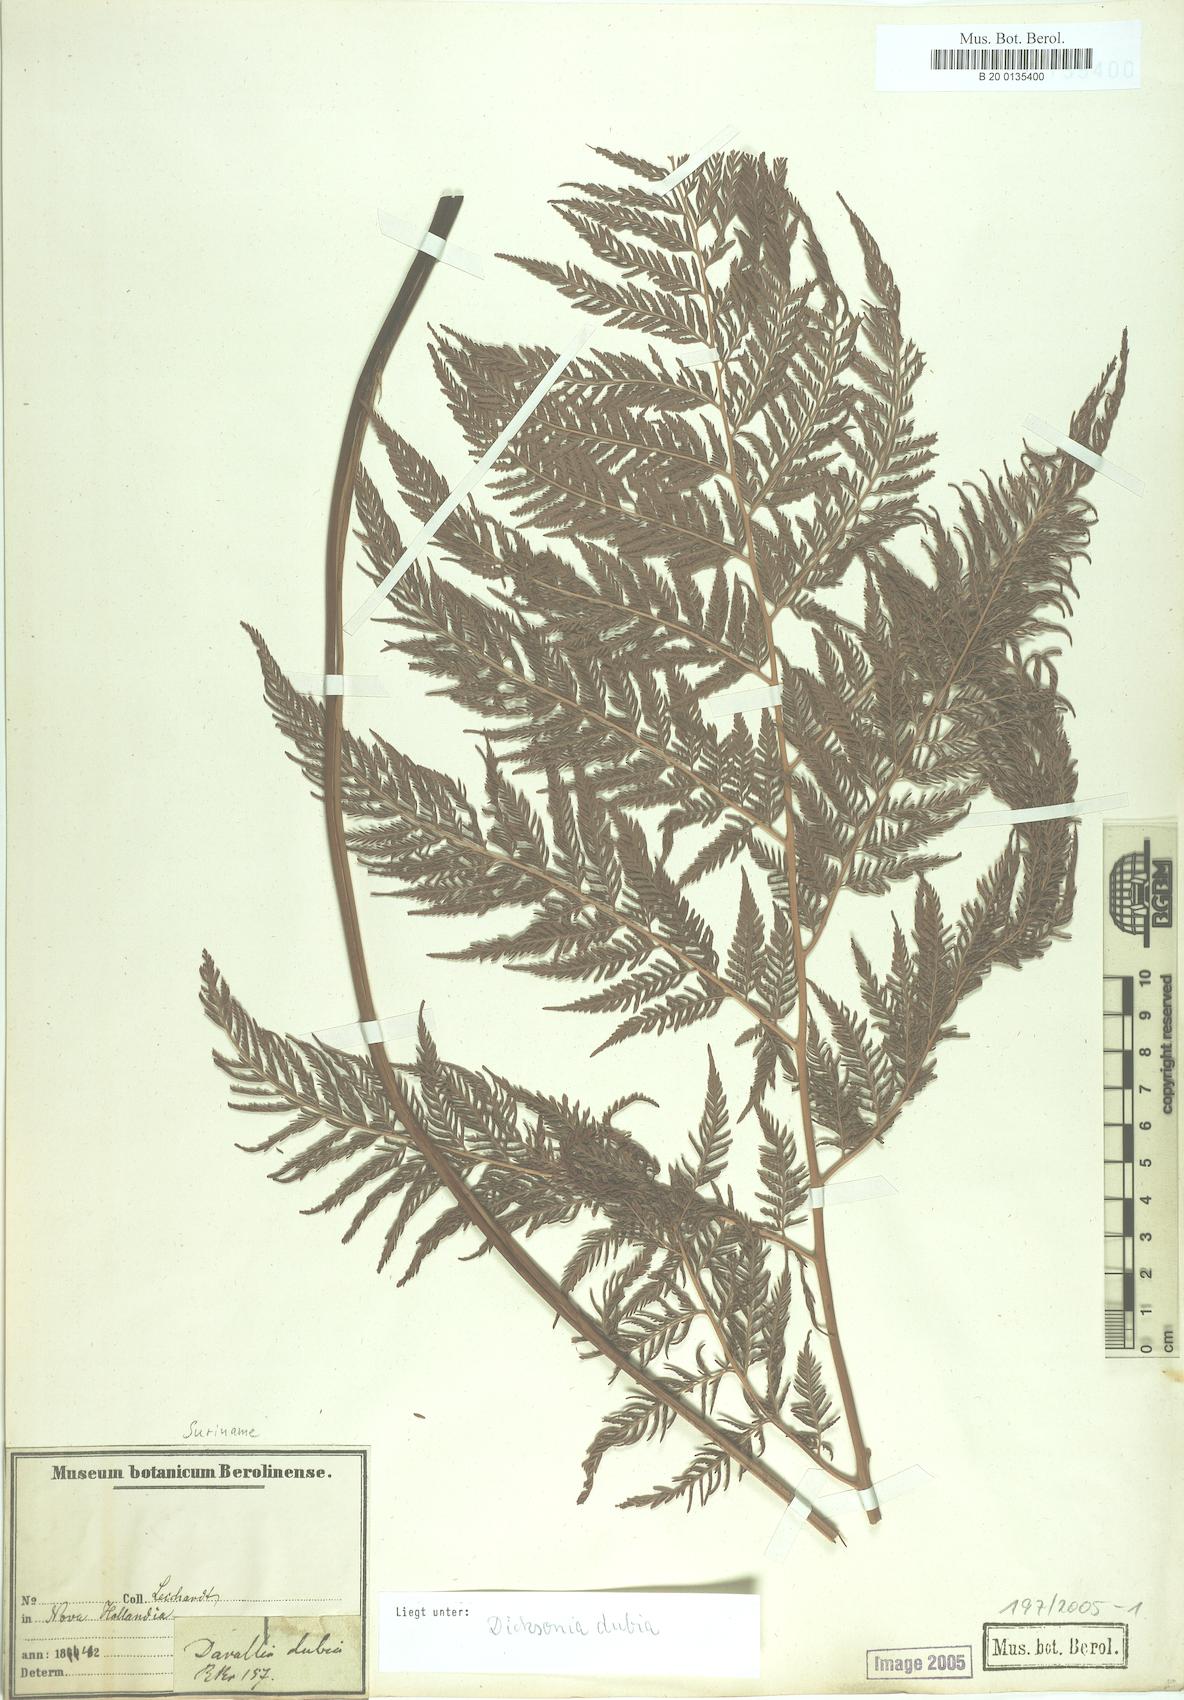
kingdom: Plantae
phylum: Tracheophyta
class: Polypodiopsida
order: Cyatheales
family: Dicksoniaceae
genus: Calochlaena
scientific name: Calochlaena dubia
